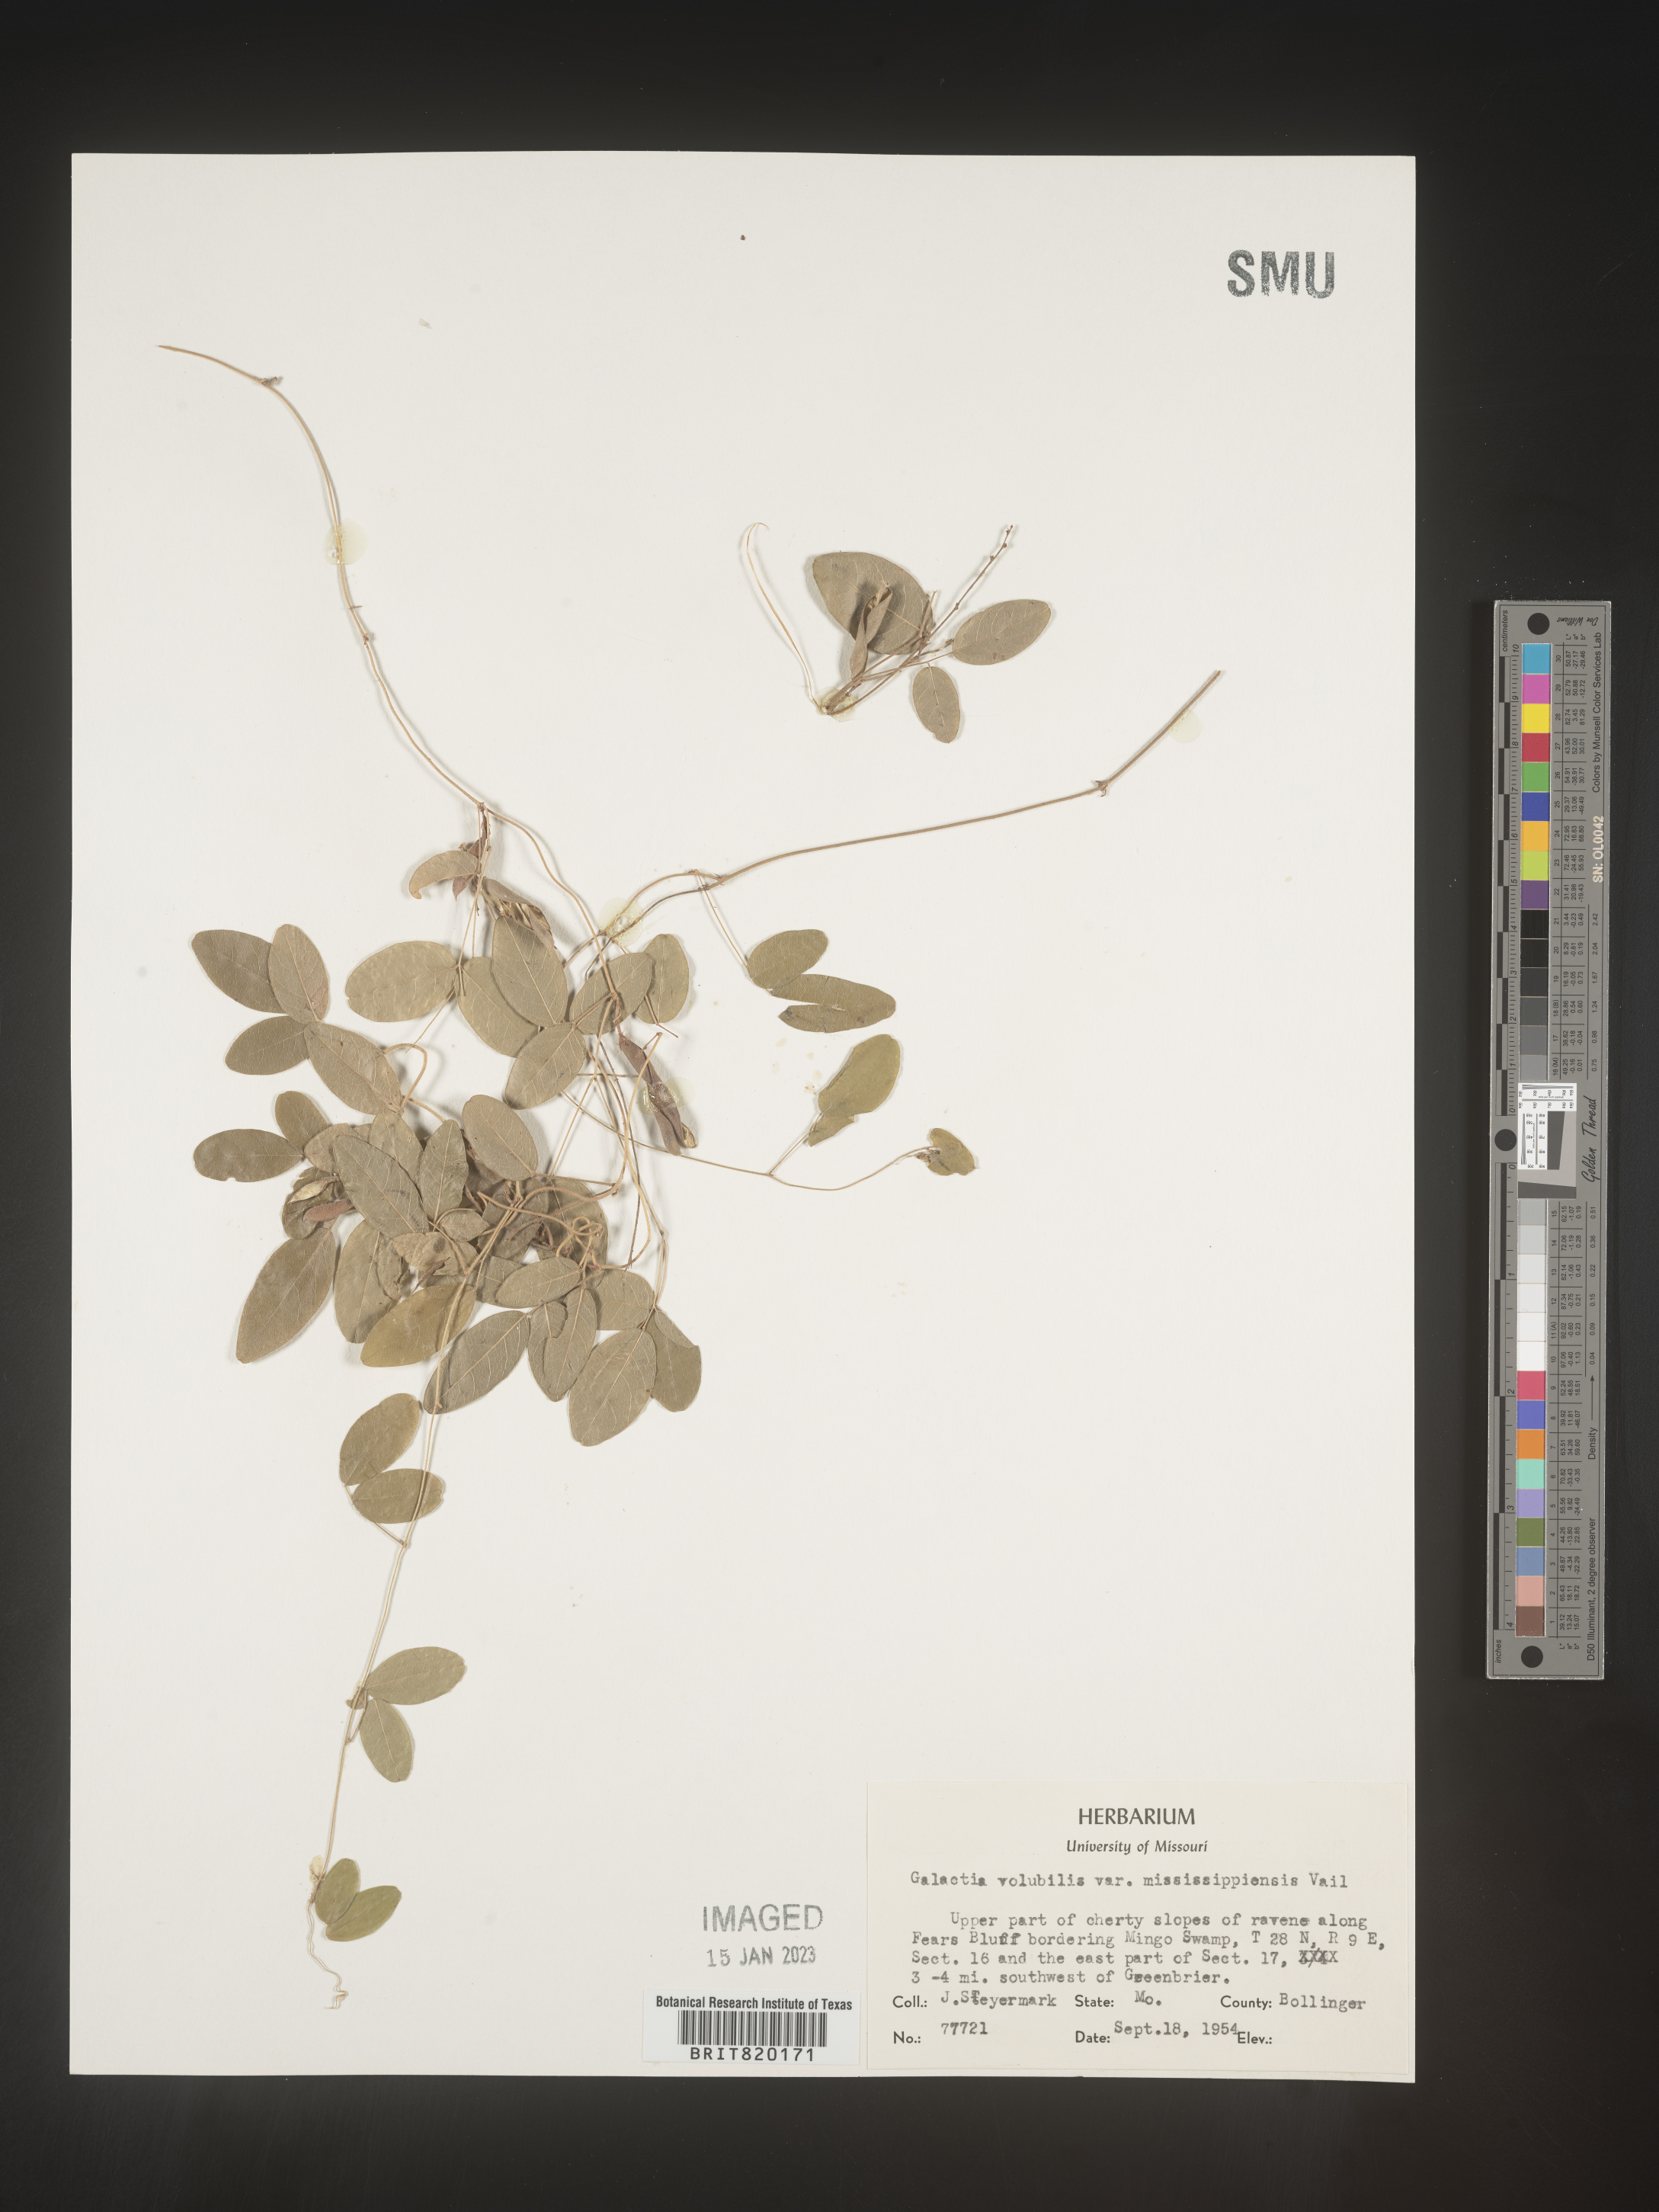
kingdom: Plantae
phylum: Tracheophyta
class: Magnoliopsida
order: Fabales
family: Fabaceae
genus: Galactia
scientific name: Galactia volubilis
